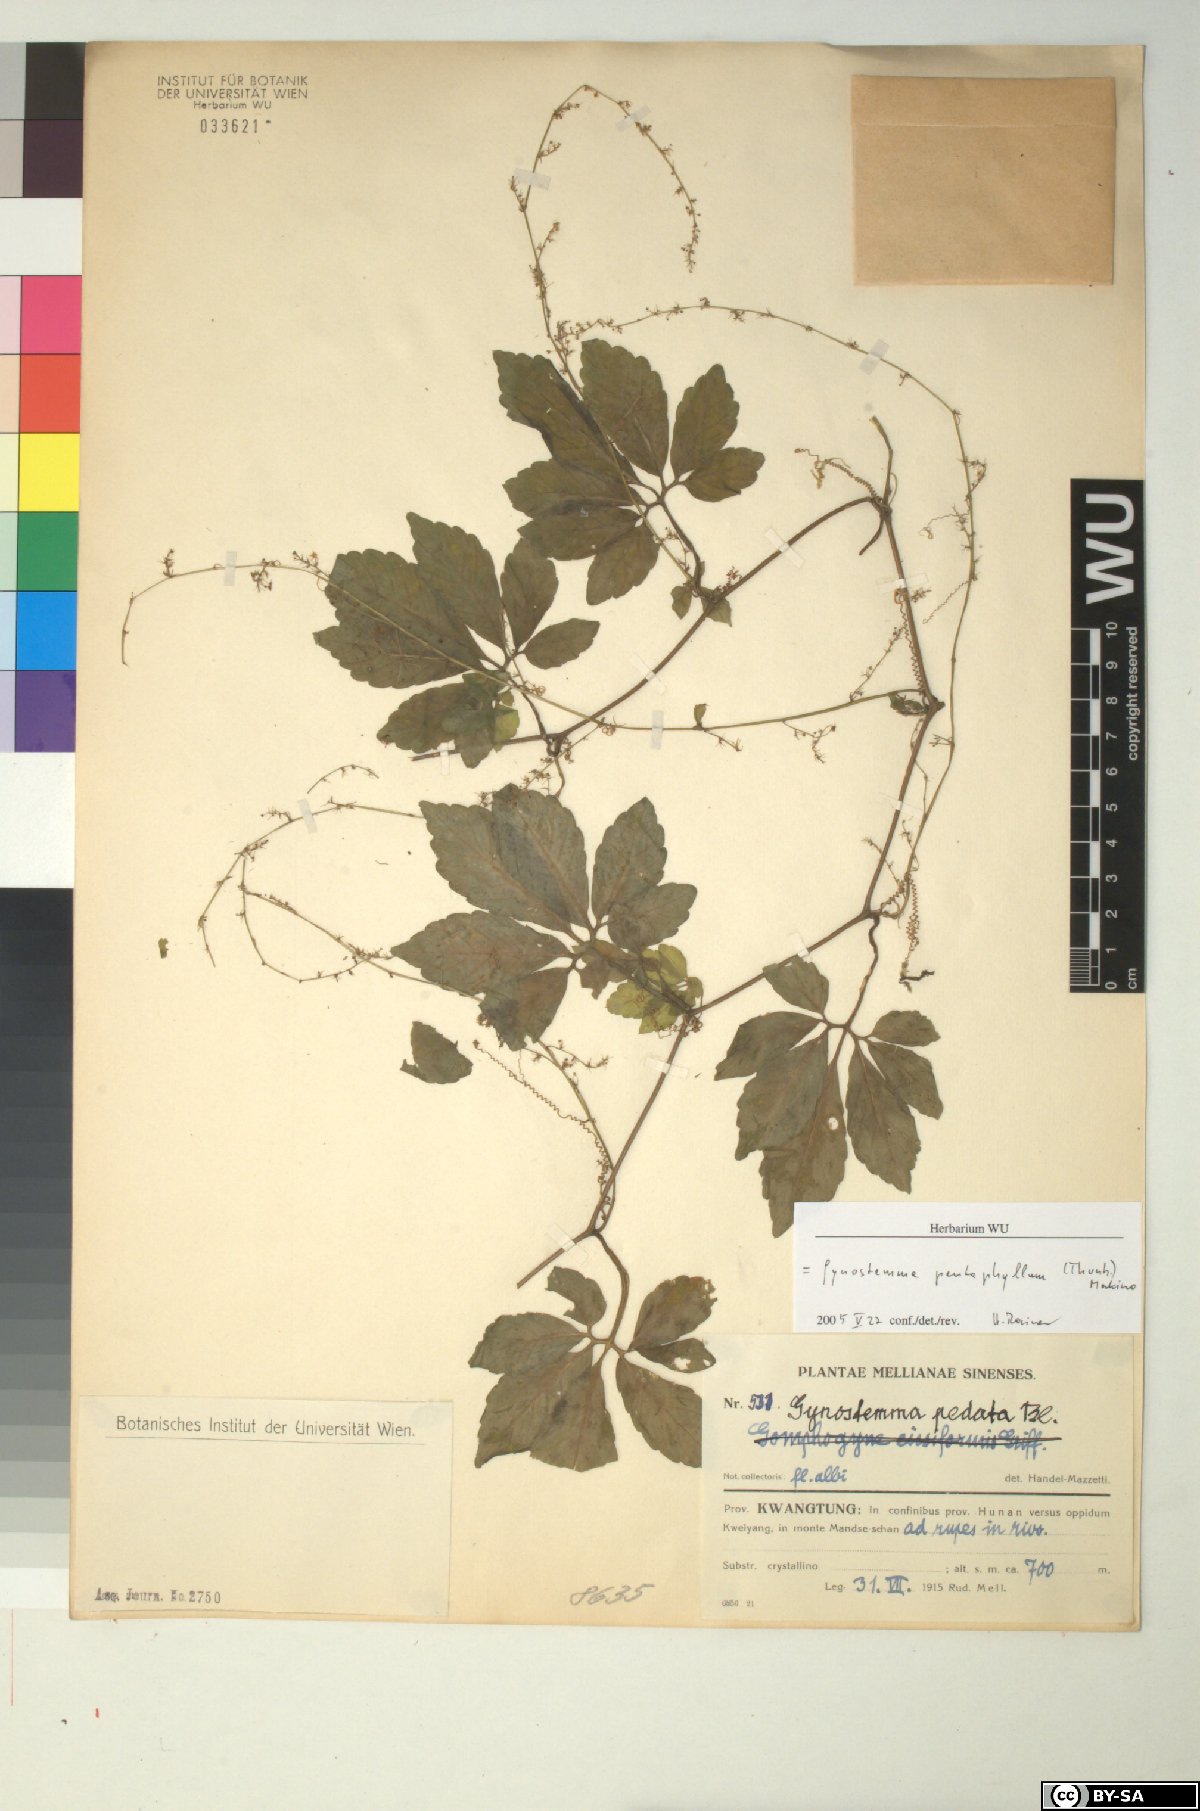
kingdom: Plantae
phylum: Tracheophyta
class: Magnoliopsida
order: Cucurbitales
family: Cucurbitaceae
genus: Gynostemma
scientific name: Gynostemma pentaphyllum
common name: Gynostemma
